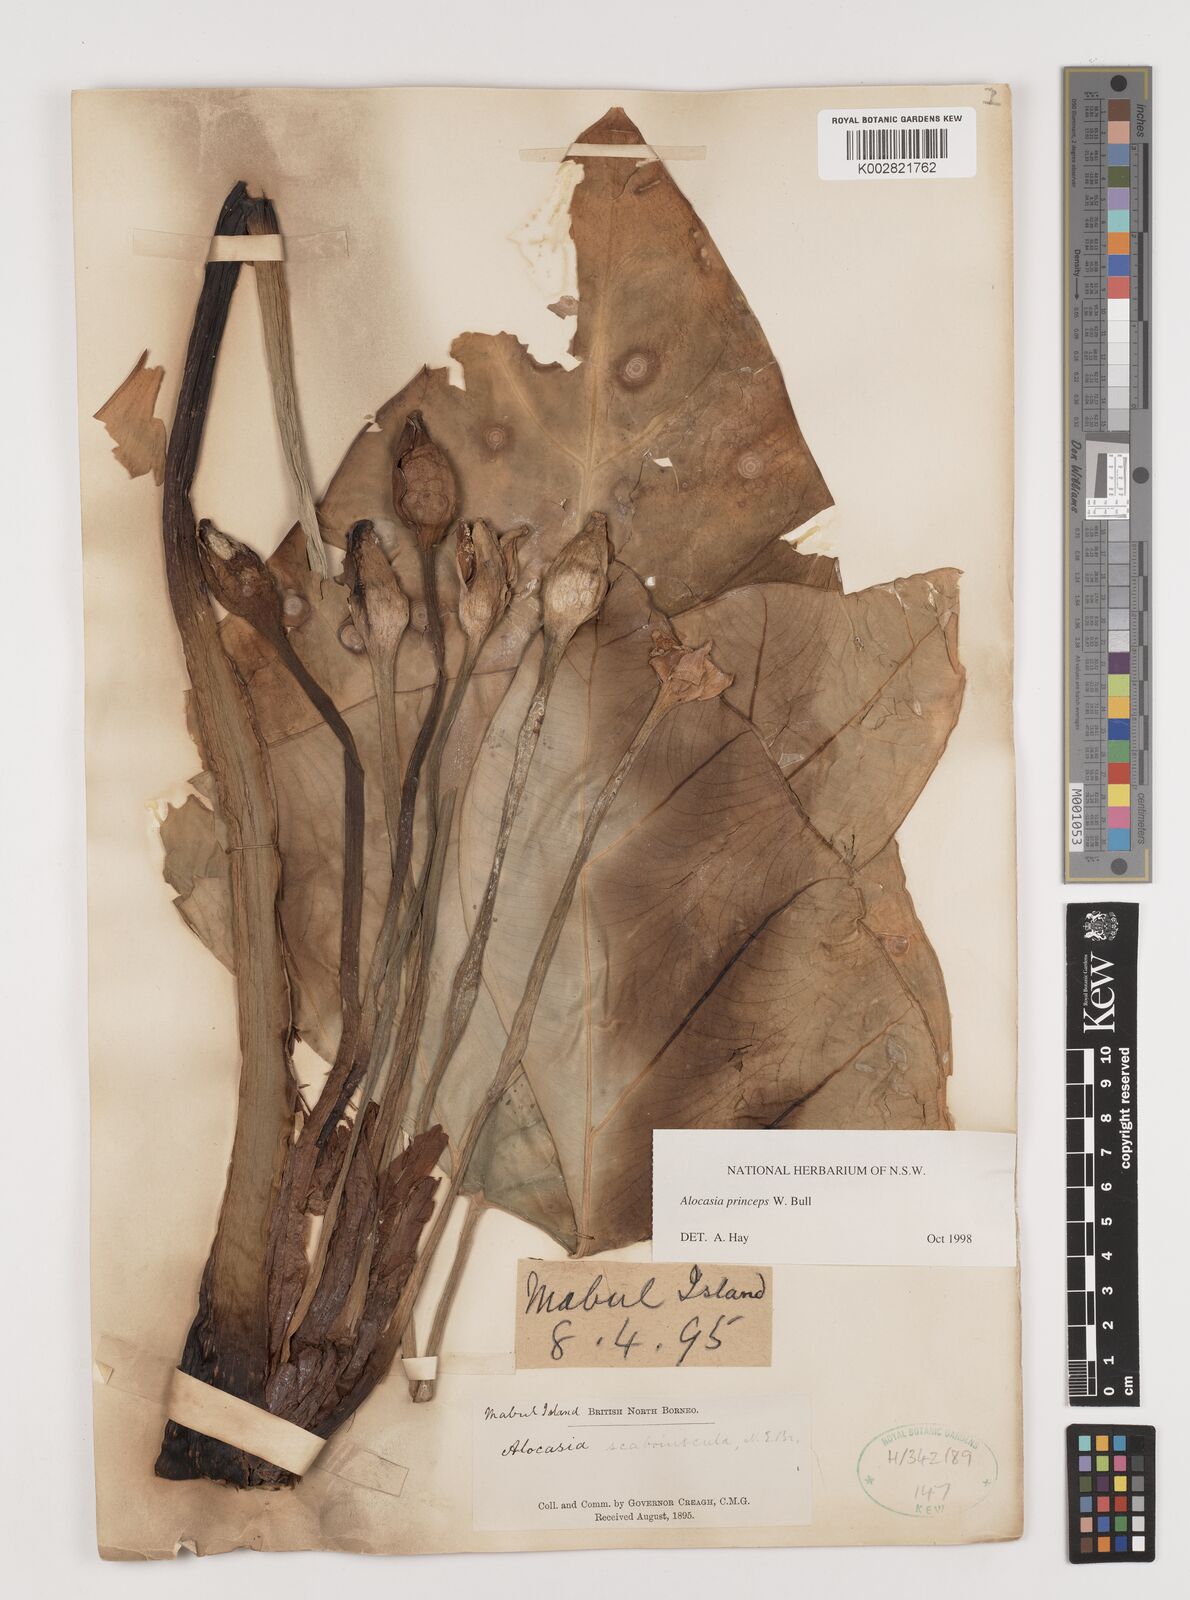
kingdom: Plantae
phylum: Tracheophyta
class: Liliopsida
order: Alismatales
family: Araceae
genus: Alocasia
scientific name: Alocasia princeps
